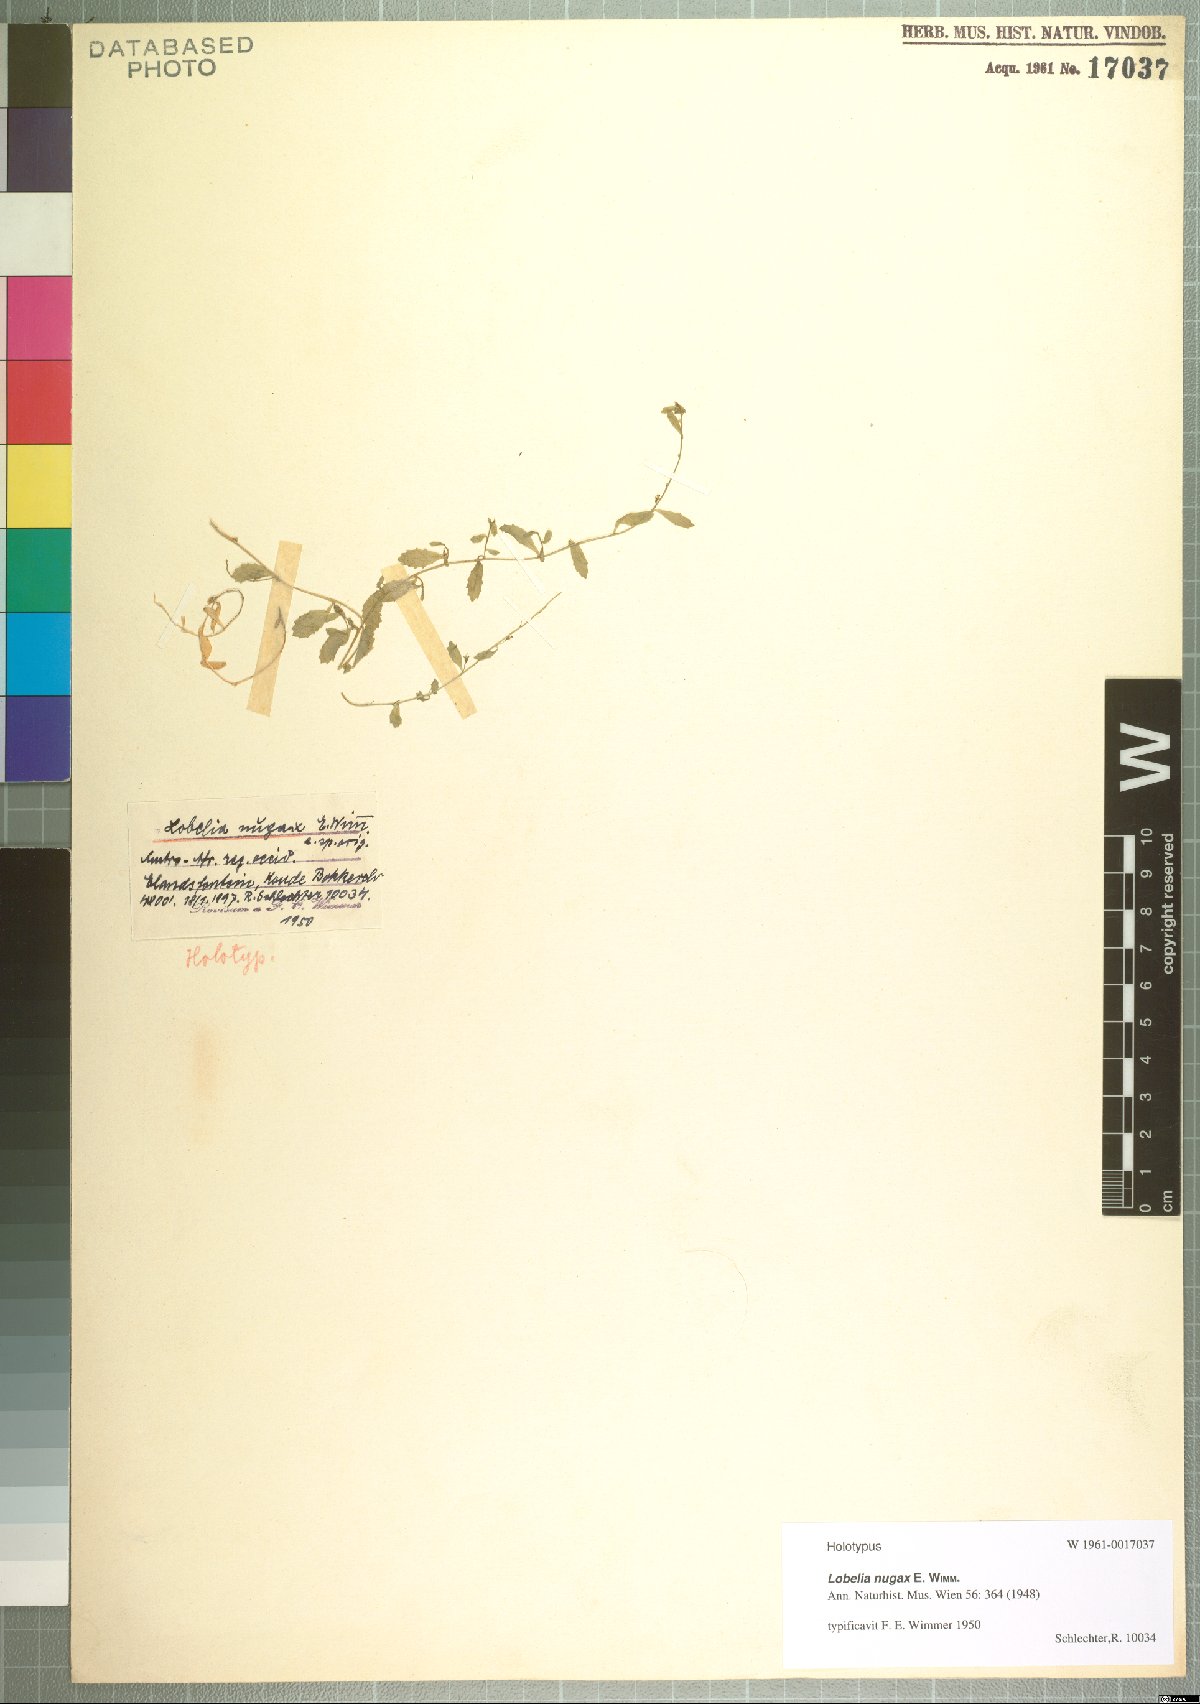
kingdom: Plantae
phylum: Tracheophyta
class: Magnoliopsida
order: Asterales
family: Campanulaceae
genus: Lobelia
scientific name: Lobelia nugax
